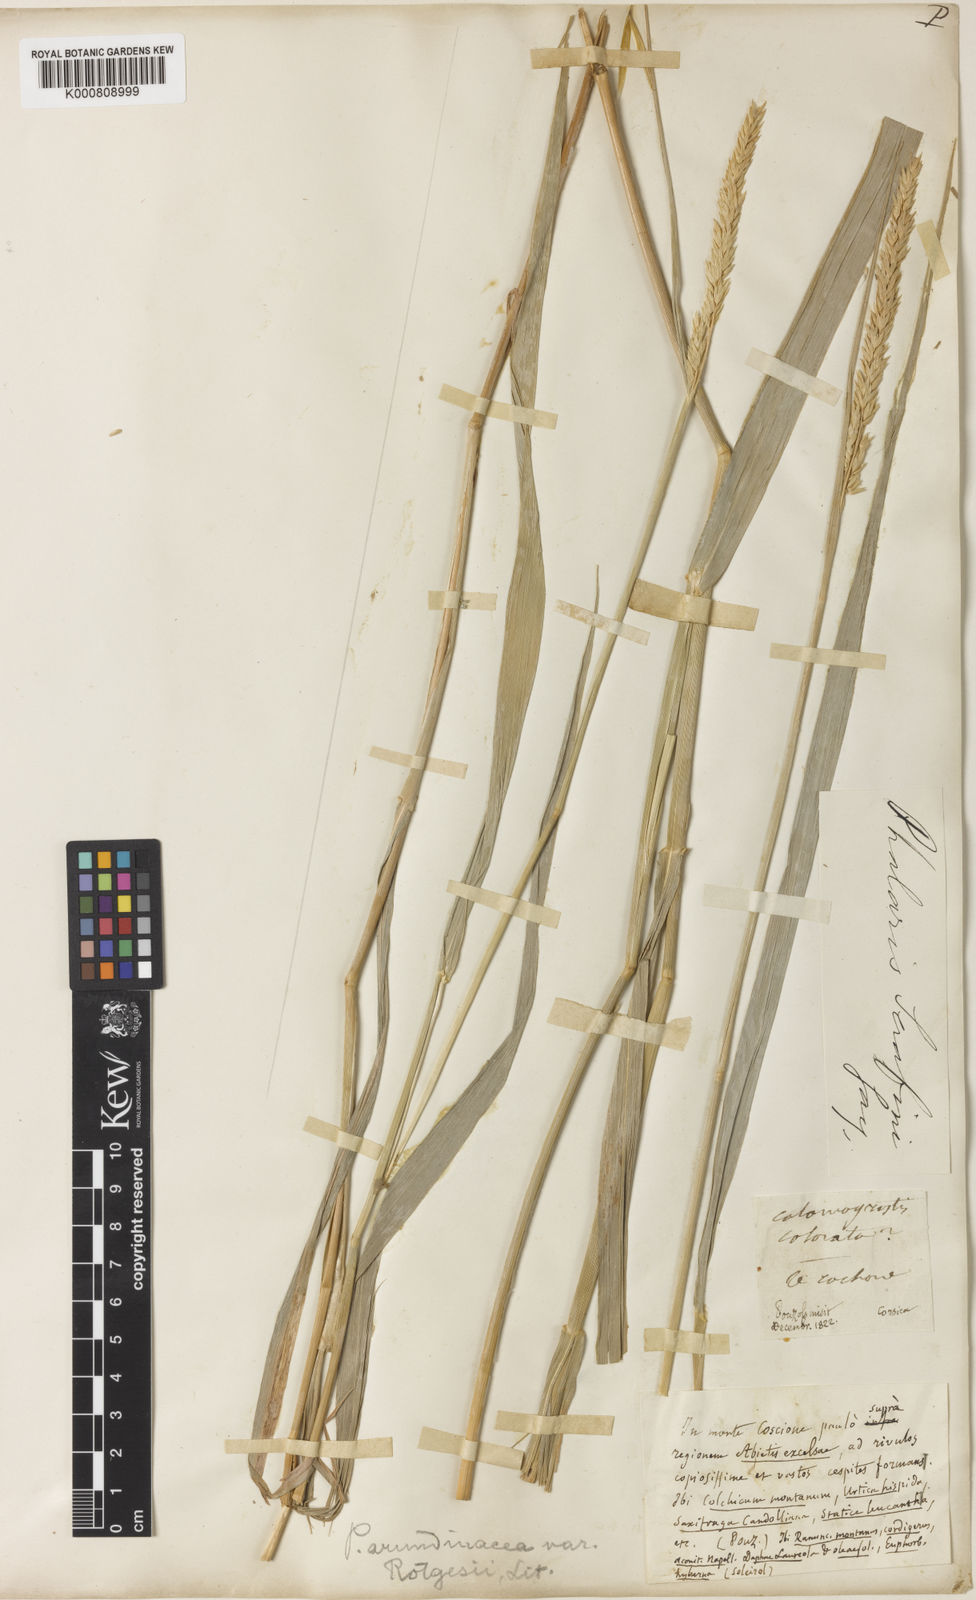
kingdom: Plantae
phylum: Tracheophyta
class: Liliopsida
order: Poales
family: Poaceae
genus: Phalaris
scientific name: Phalaris arundinacea
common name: Reed canary-grass
